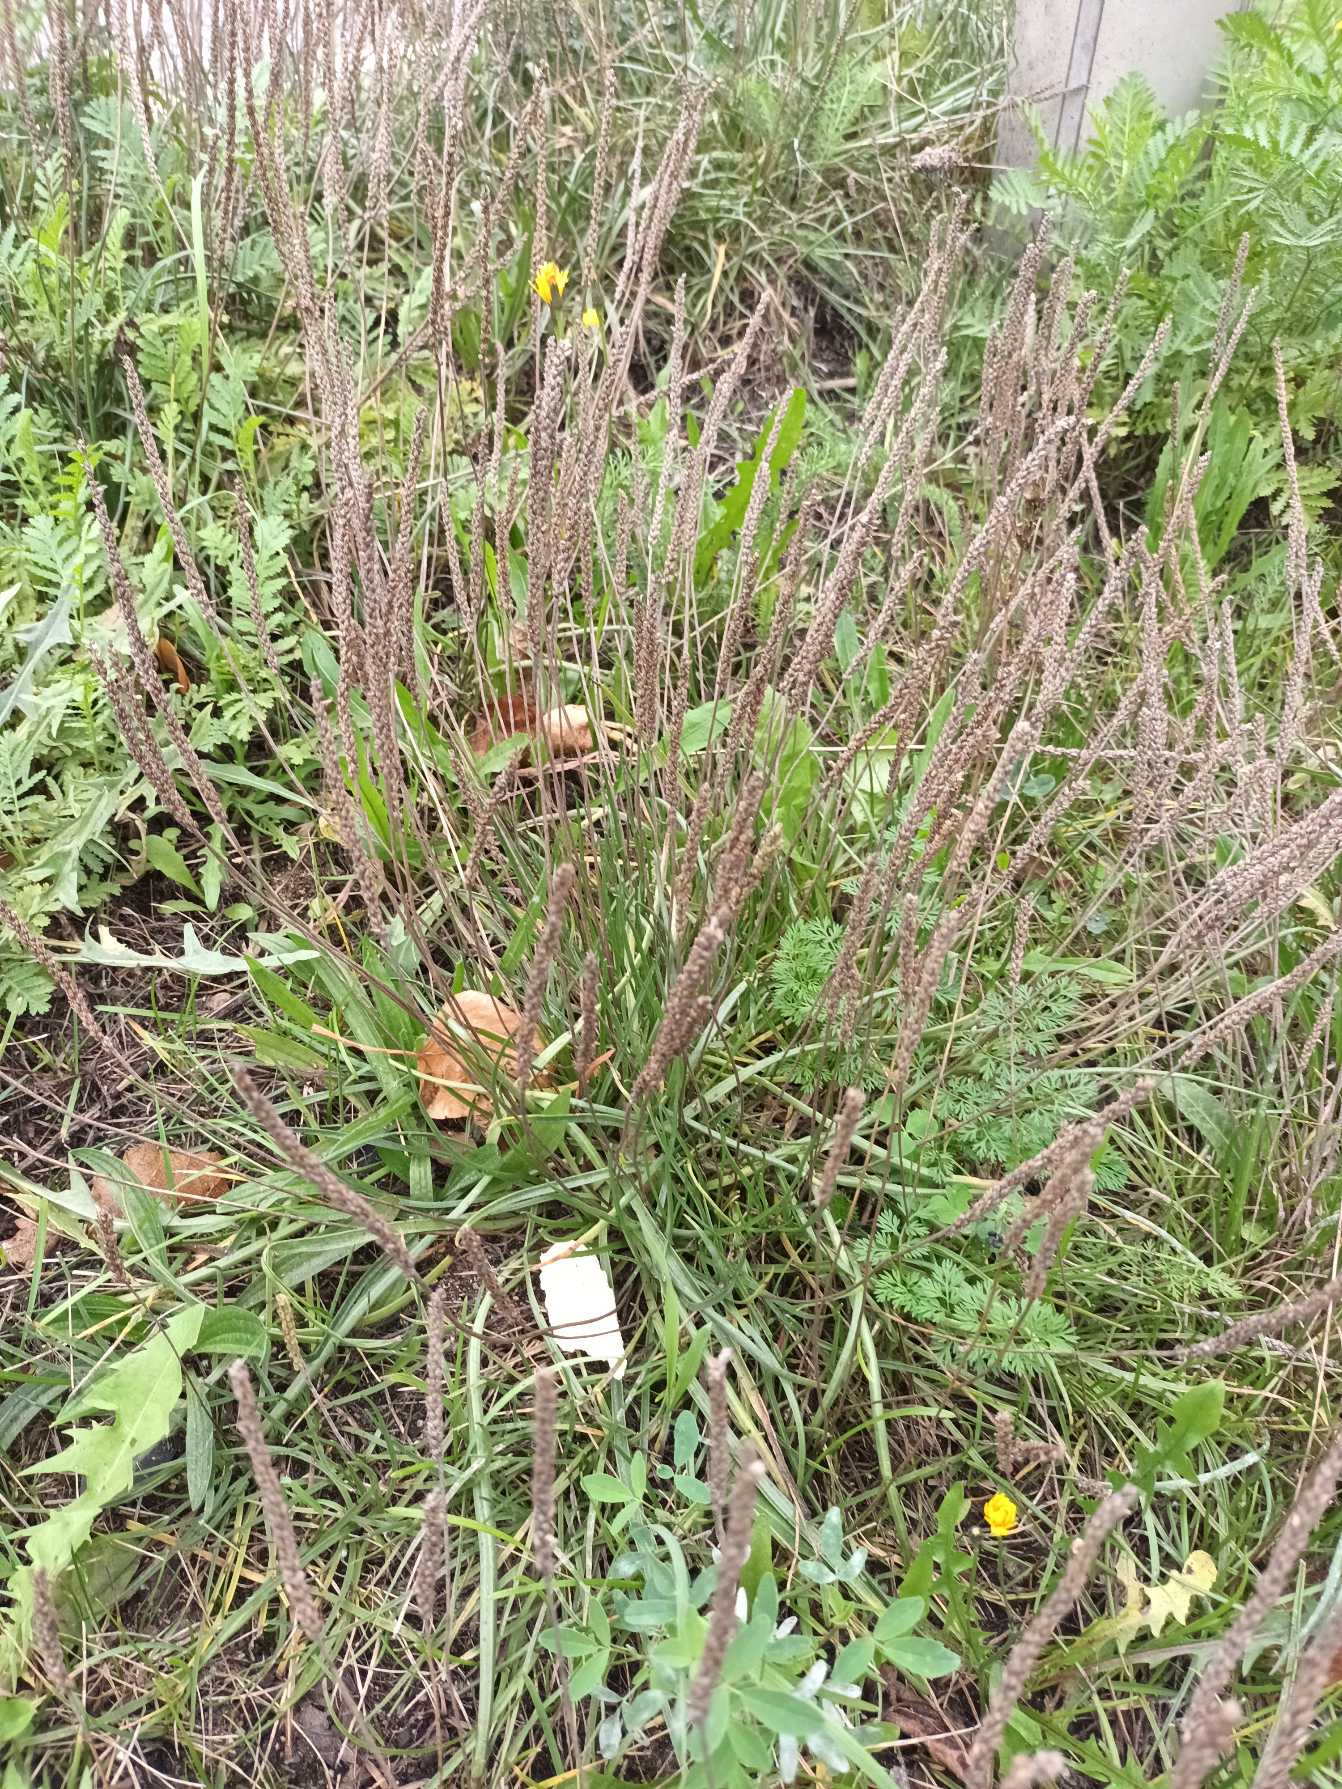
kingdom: Plantae
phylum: Tracheophyta
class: Magnoliopsida
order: Lamiales
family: Plantaginaceae
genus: Plantago
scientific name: Plantago maritima
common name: Strand-vejbred
